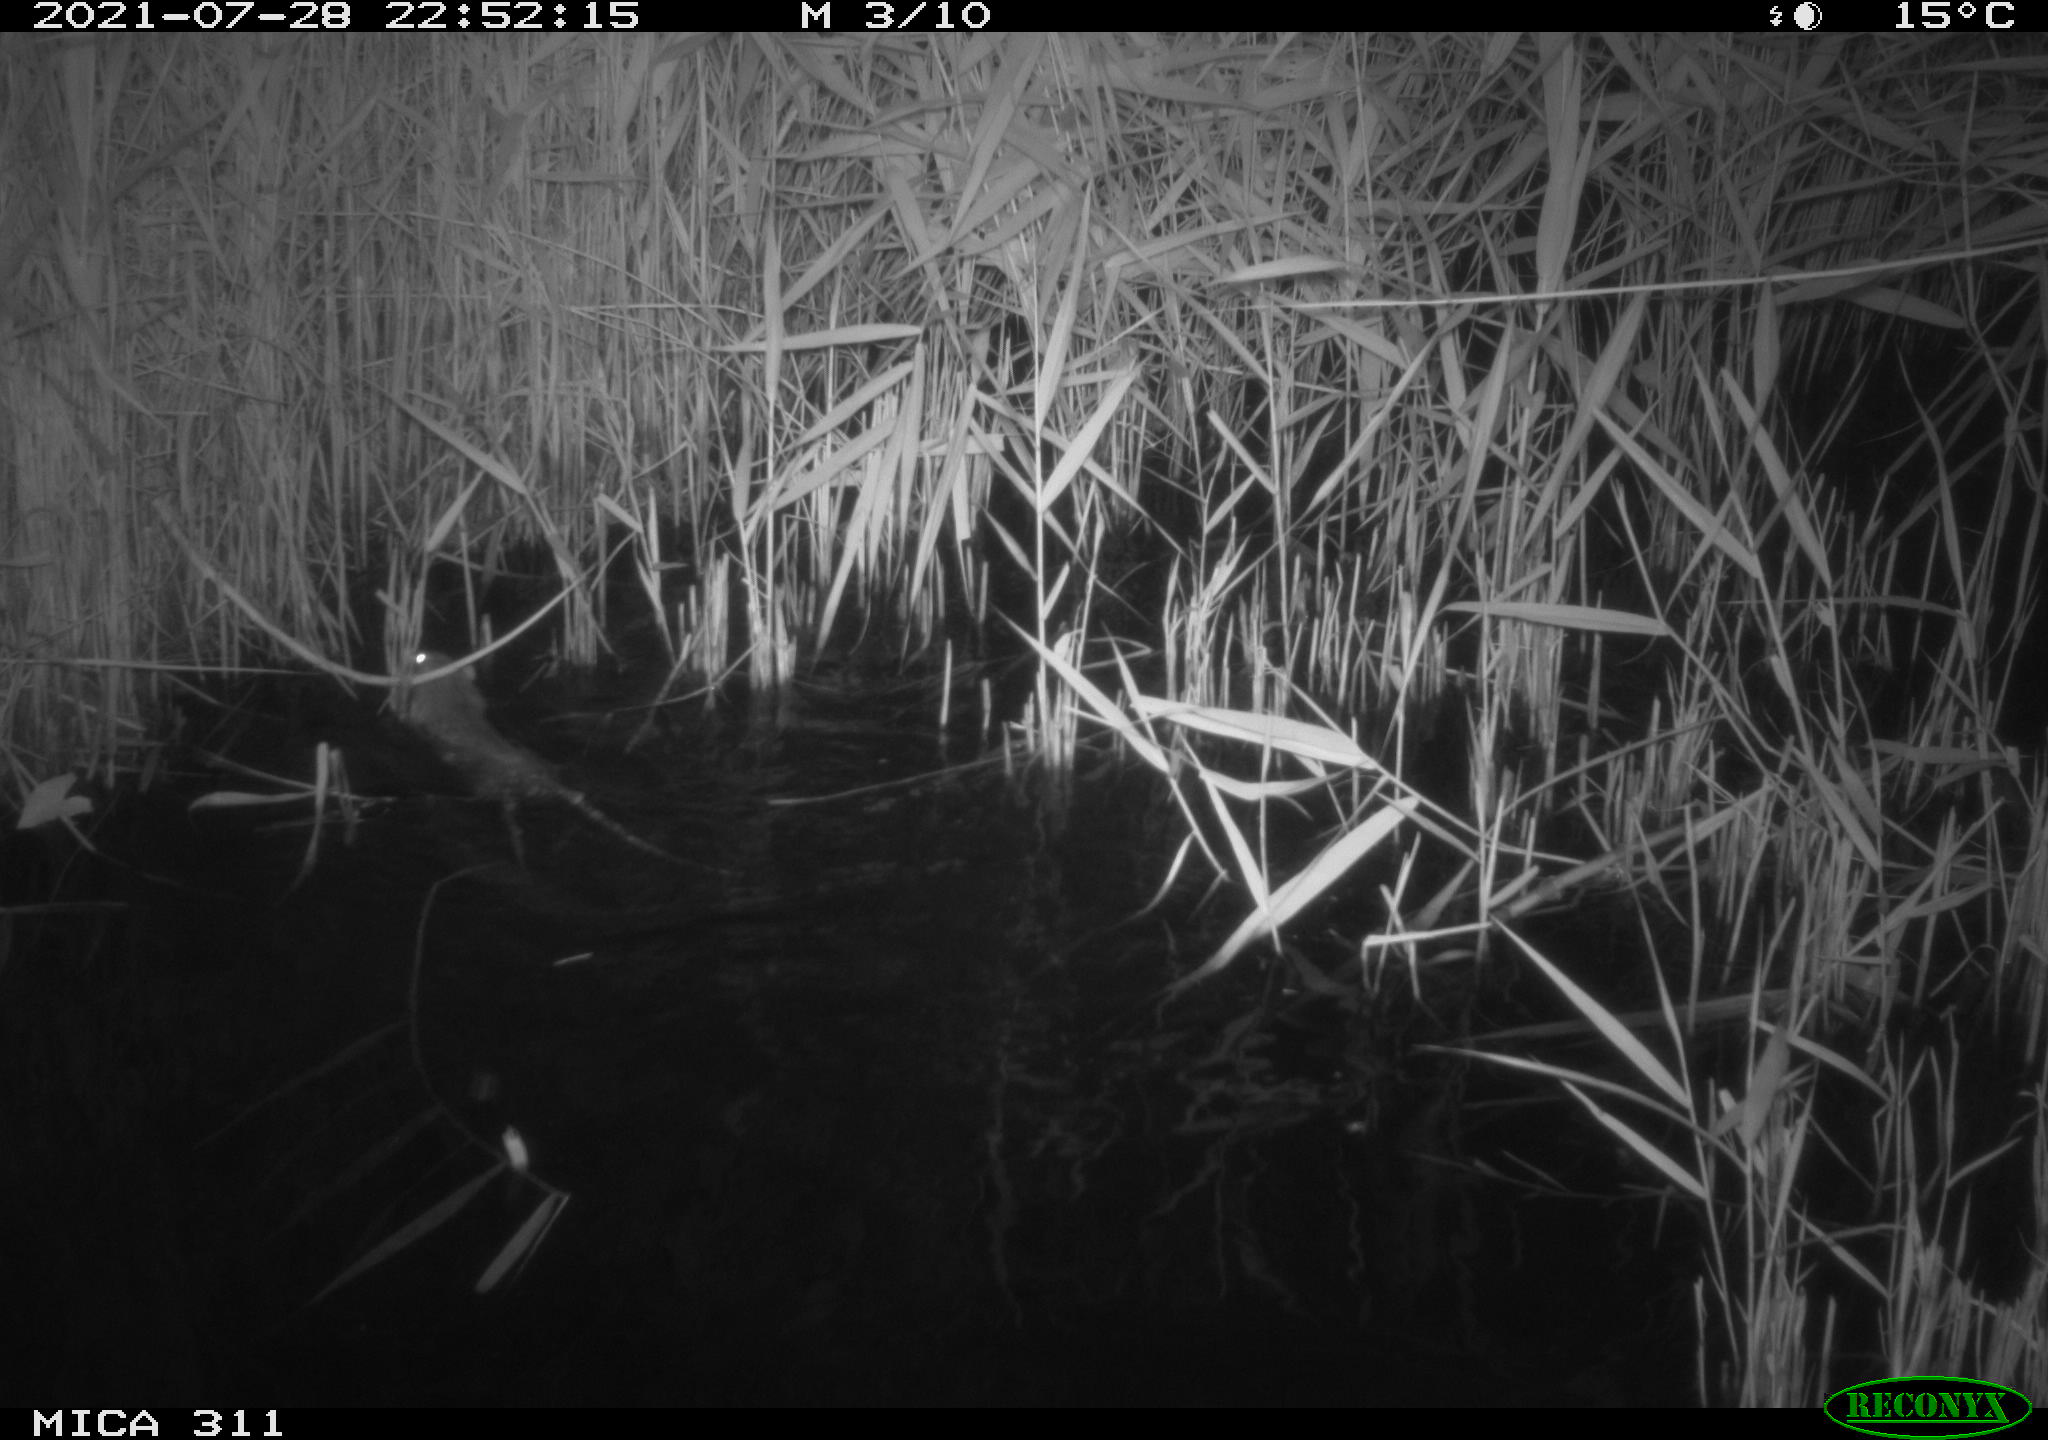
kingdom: Animalia
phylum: Chordata
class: Mammalia
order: Rodentia
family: Muridae
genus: Rattus
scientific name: Rattus norvegicus
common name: Brown rat
